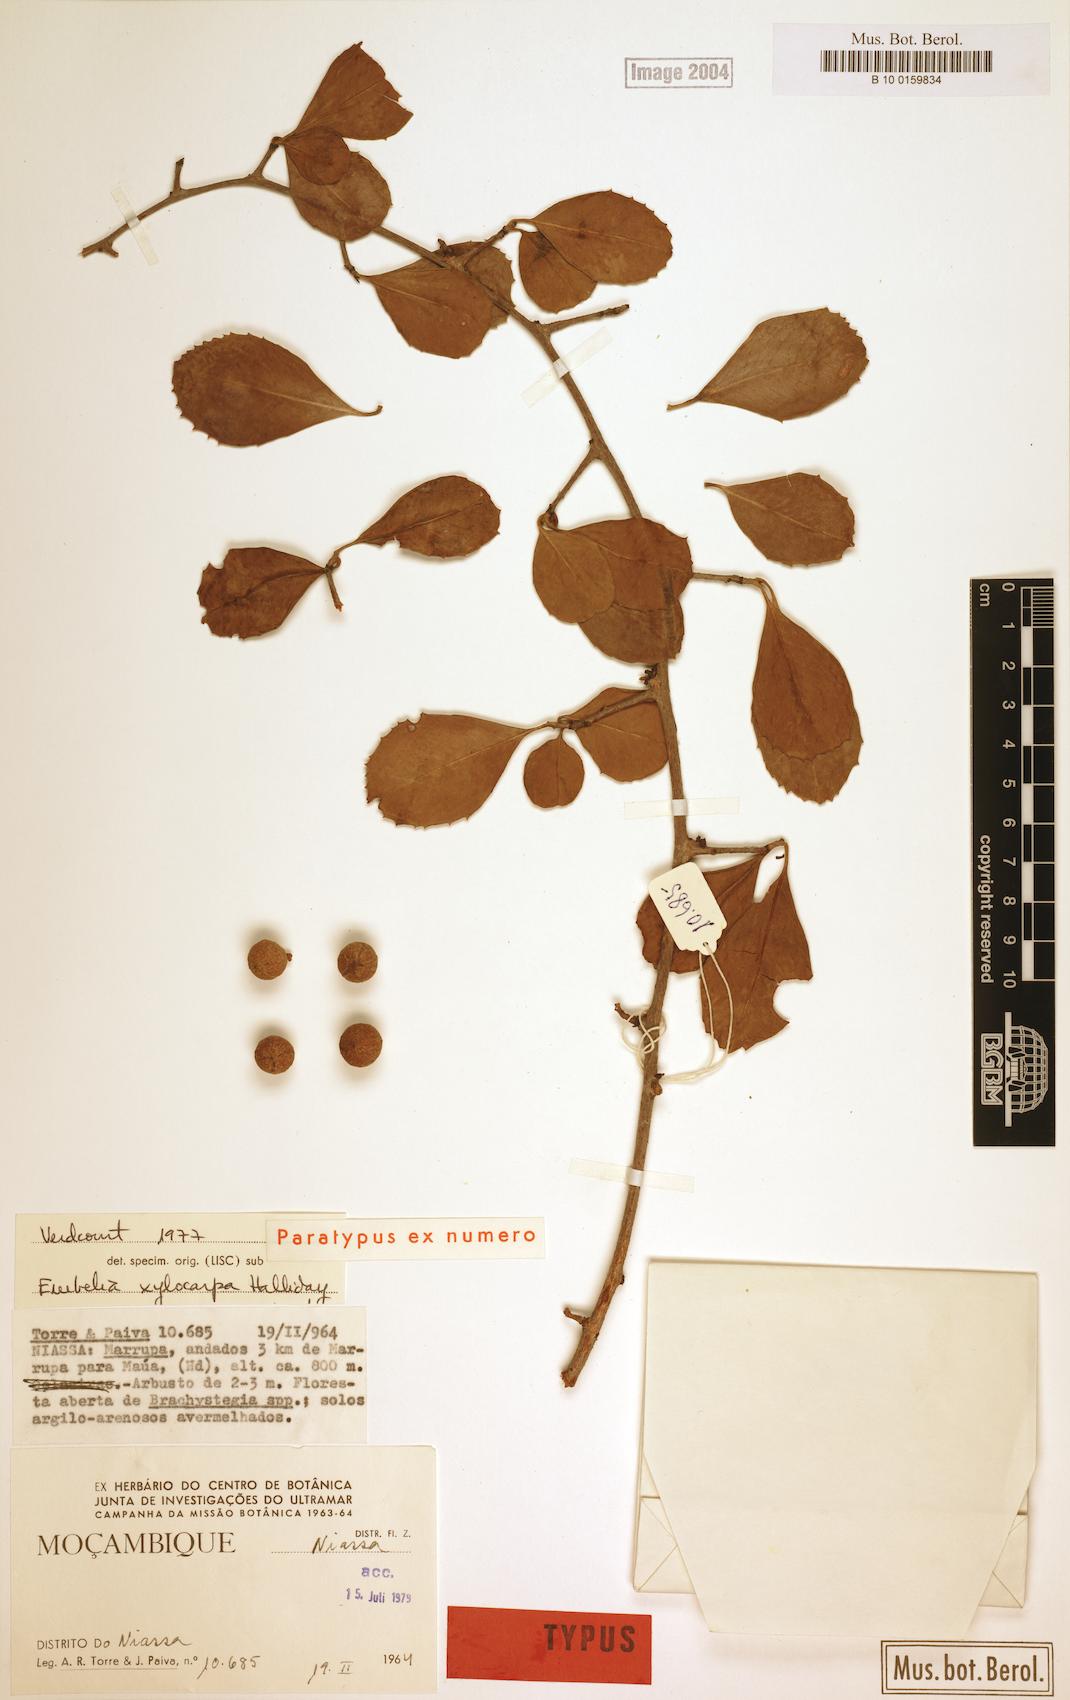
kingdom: Plantae
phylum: Tracheophyta
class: Magnoliopsida
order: Ericales
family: Primulaceae
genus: Embelia
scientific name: Embelia xylocarpa
